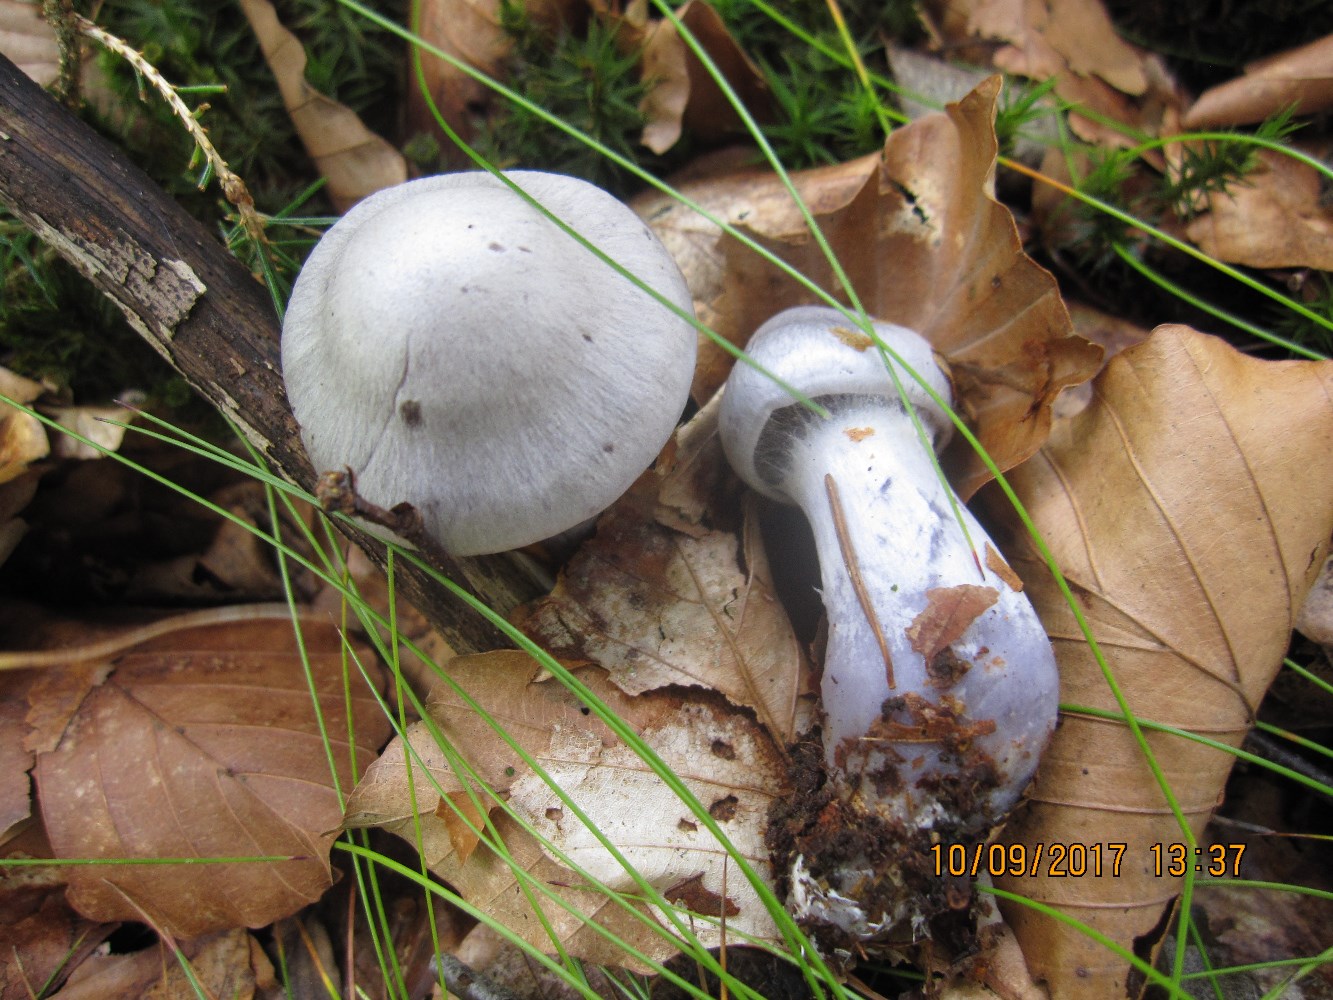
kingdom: Fungi
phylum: Basidiomycota
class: Agaricomycetes
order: Agaricales
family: Cortinariaceae
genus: Cortinarius
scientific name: Cortinarius alboviolaceus
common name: lysviolet slørhat
